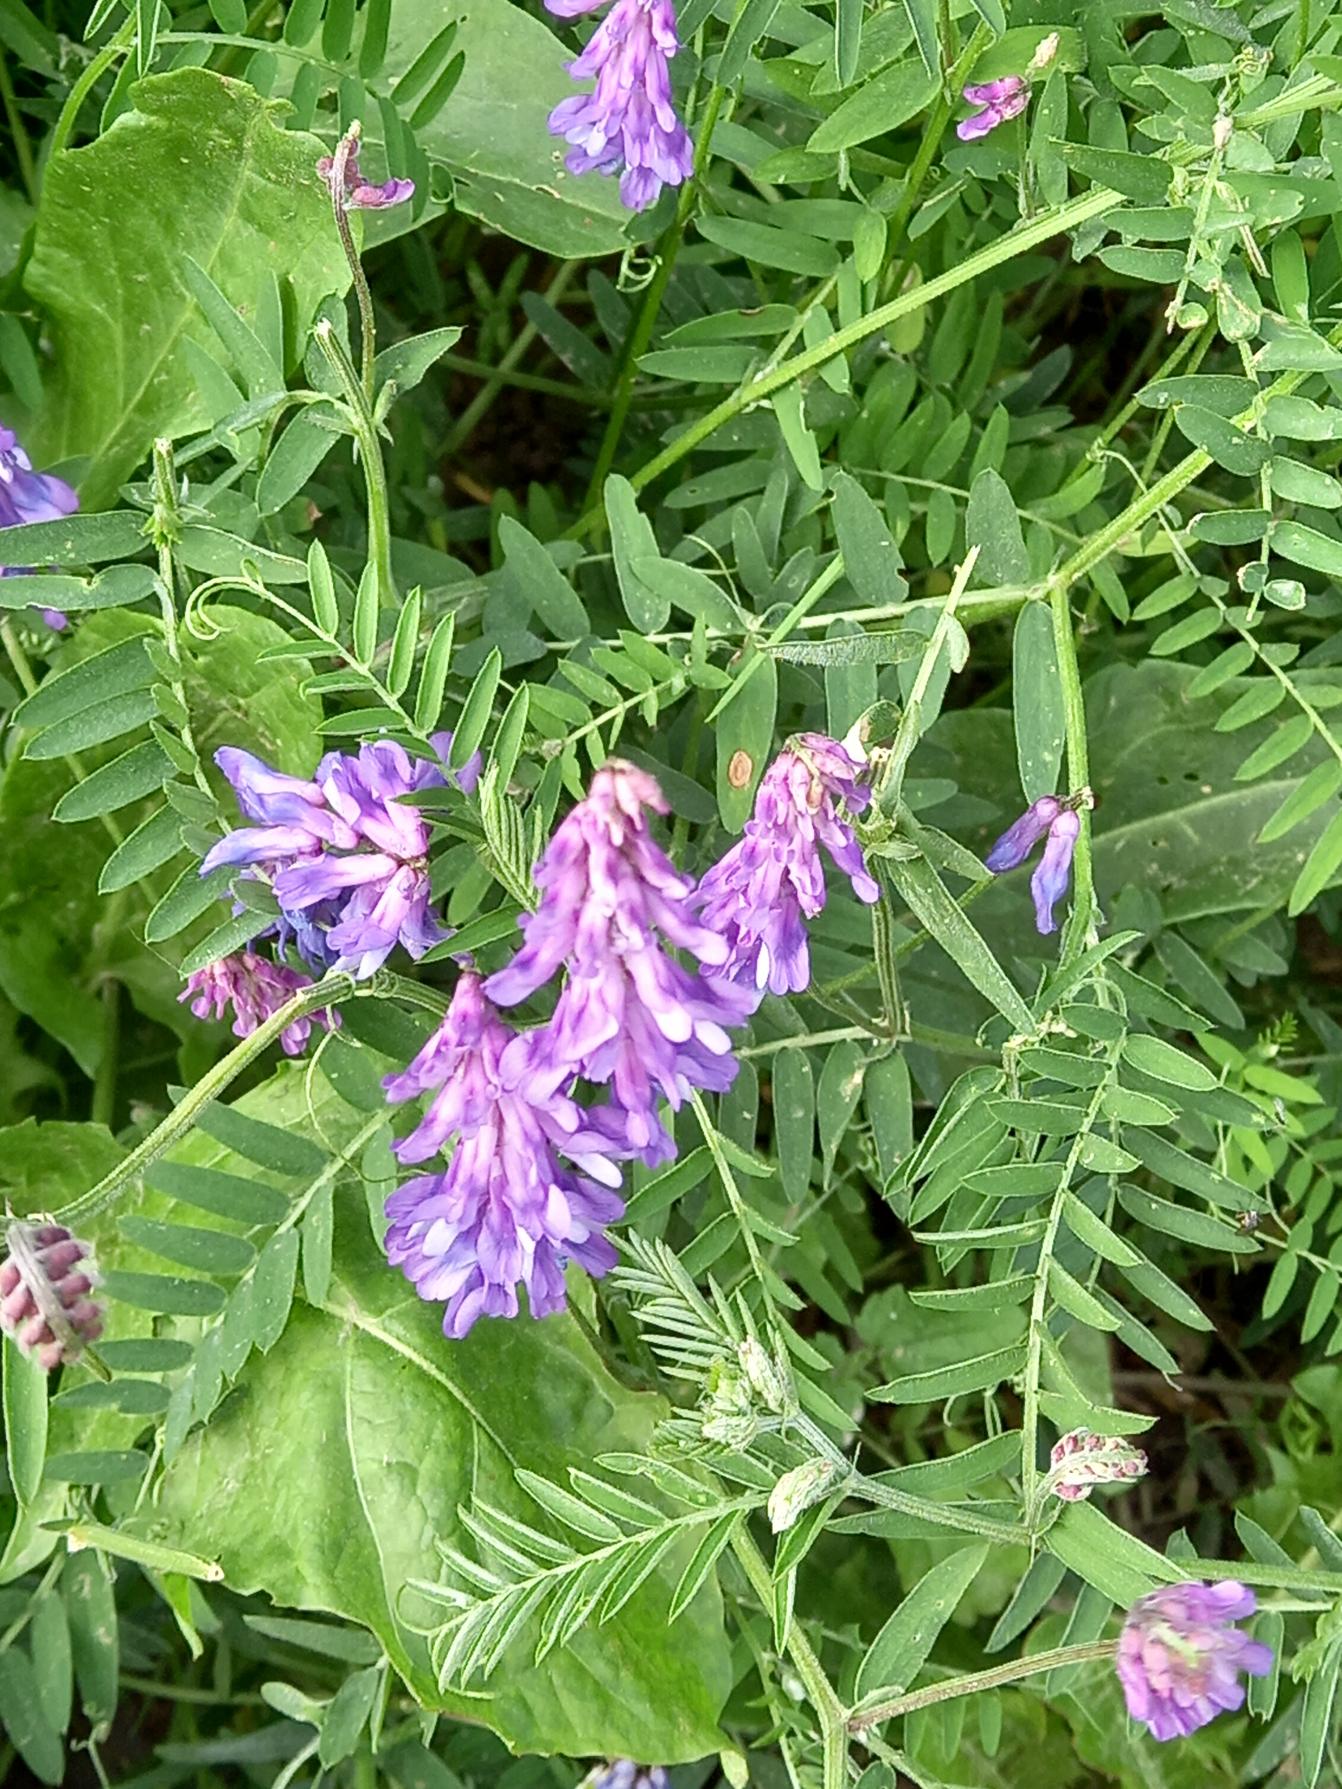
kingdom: Plantae
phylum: Tracheophyta
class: Magnoliopsida
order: Fabales
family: Fabaceae
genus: Vicia
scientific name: Vicia cracca
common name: Muse-vikke
